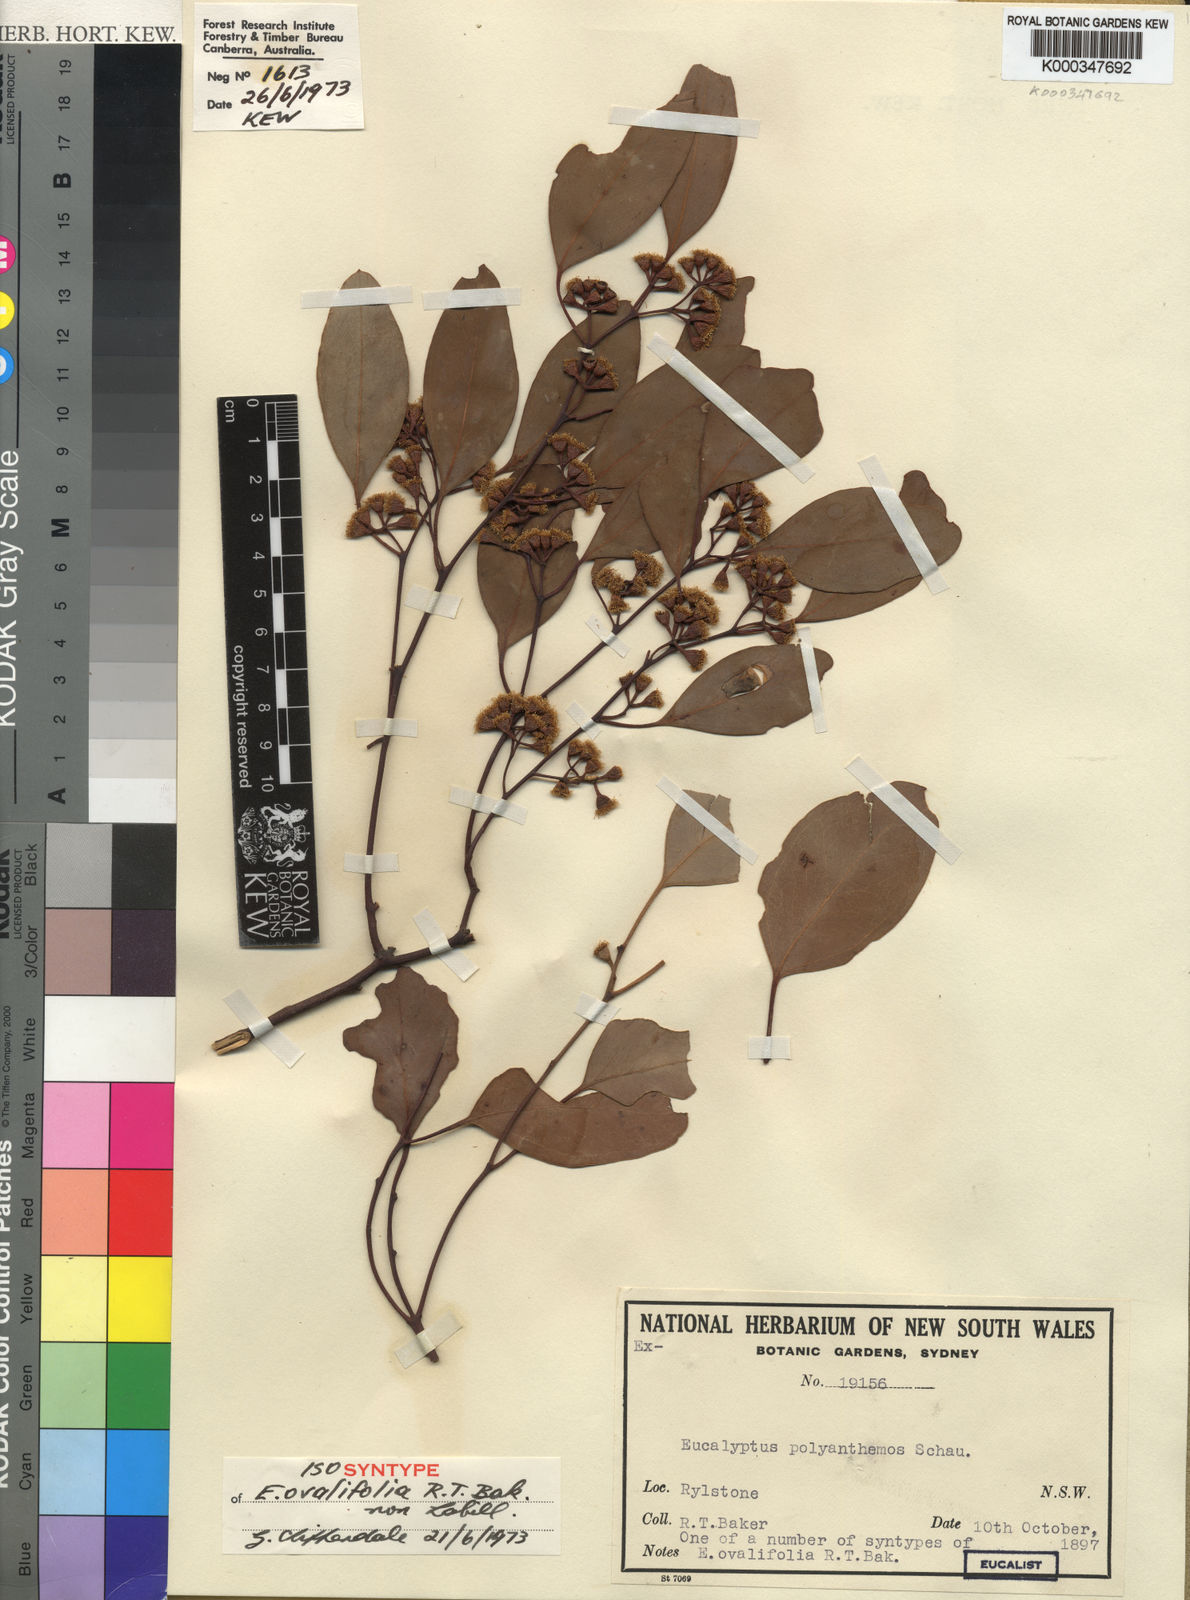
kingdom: Plantae
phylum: Tracheophyta
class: Magnoliopsida
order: Myrtales
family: Myrtaceae
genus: Eucalyptus
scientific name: Eucalyptus polyanthemos
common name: Red-box
